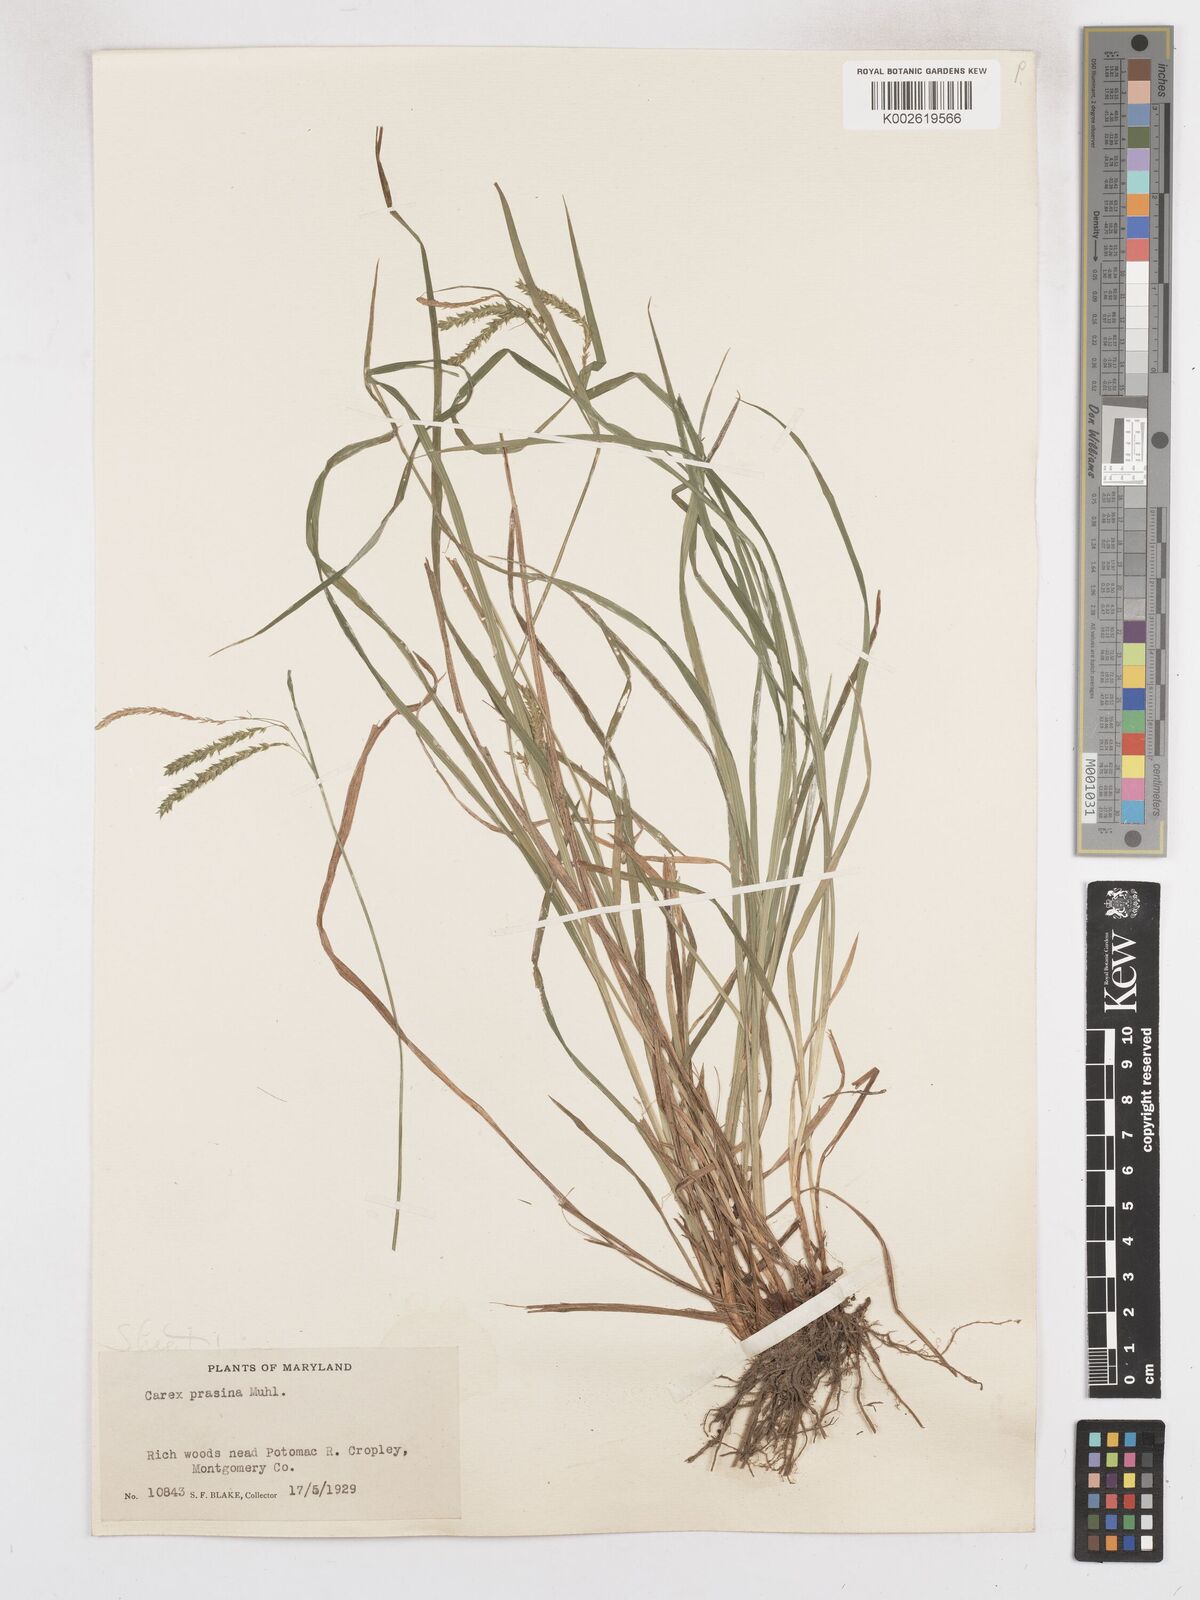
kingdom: Plantae
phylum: Tracheophyta
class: Liliopsida
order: Poales
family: Cyperaceae
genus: Carex
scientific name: Carex prasina
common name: Drooping sedge
